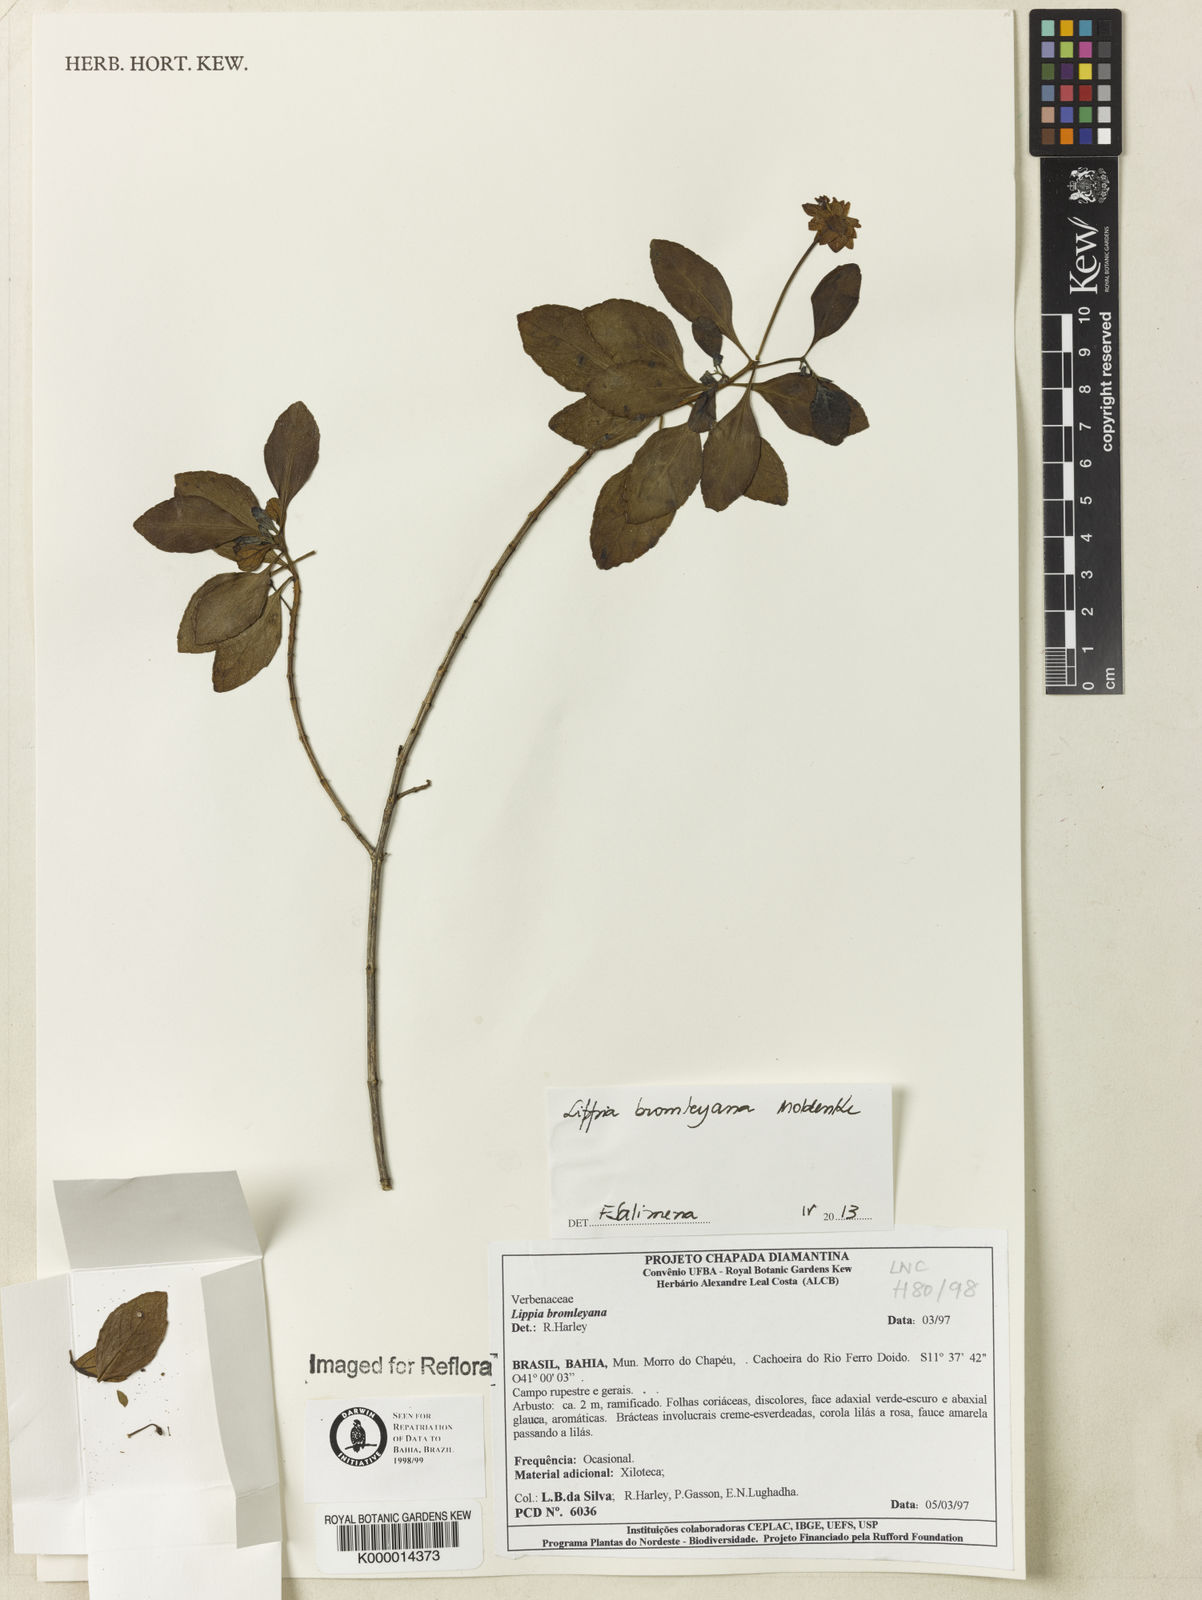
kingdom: Plantae
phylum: Tracheophyta
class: Magnoliopsida
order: Lamiales
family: Verbenaceae
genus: Lippia
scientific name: Lippia bromleyana
